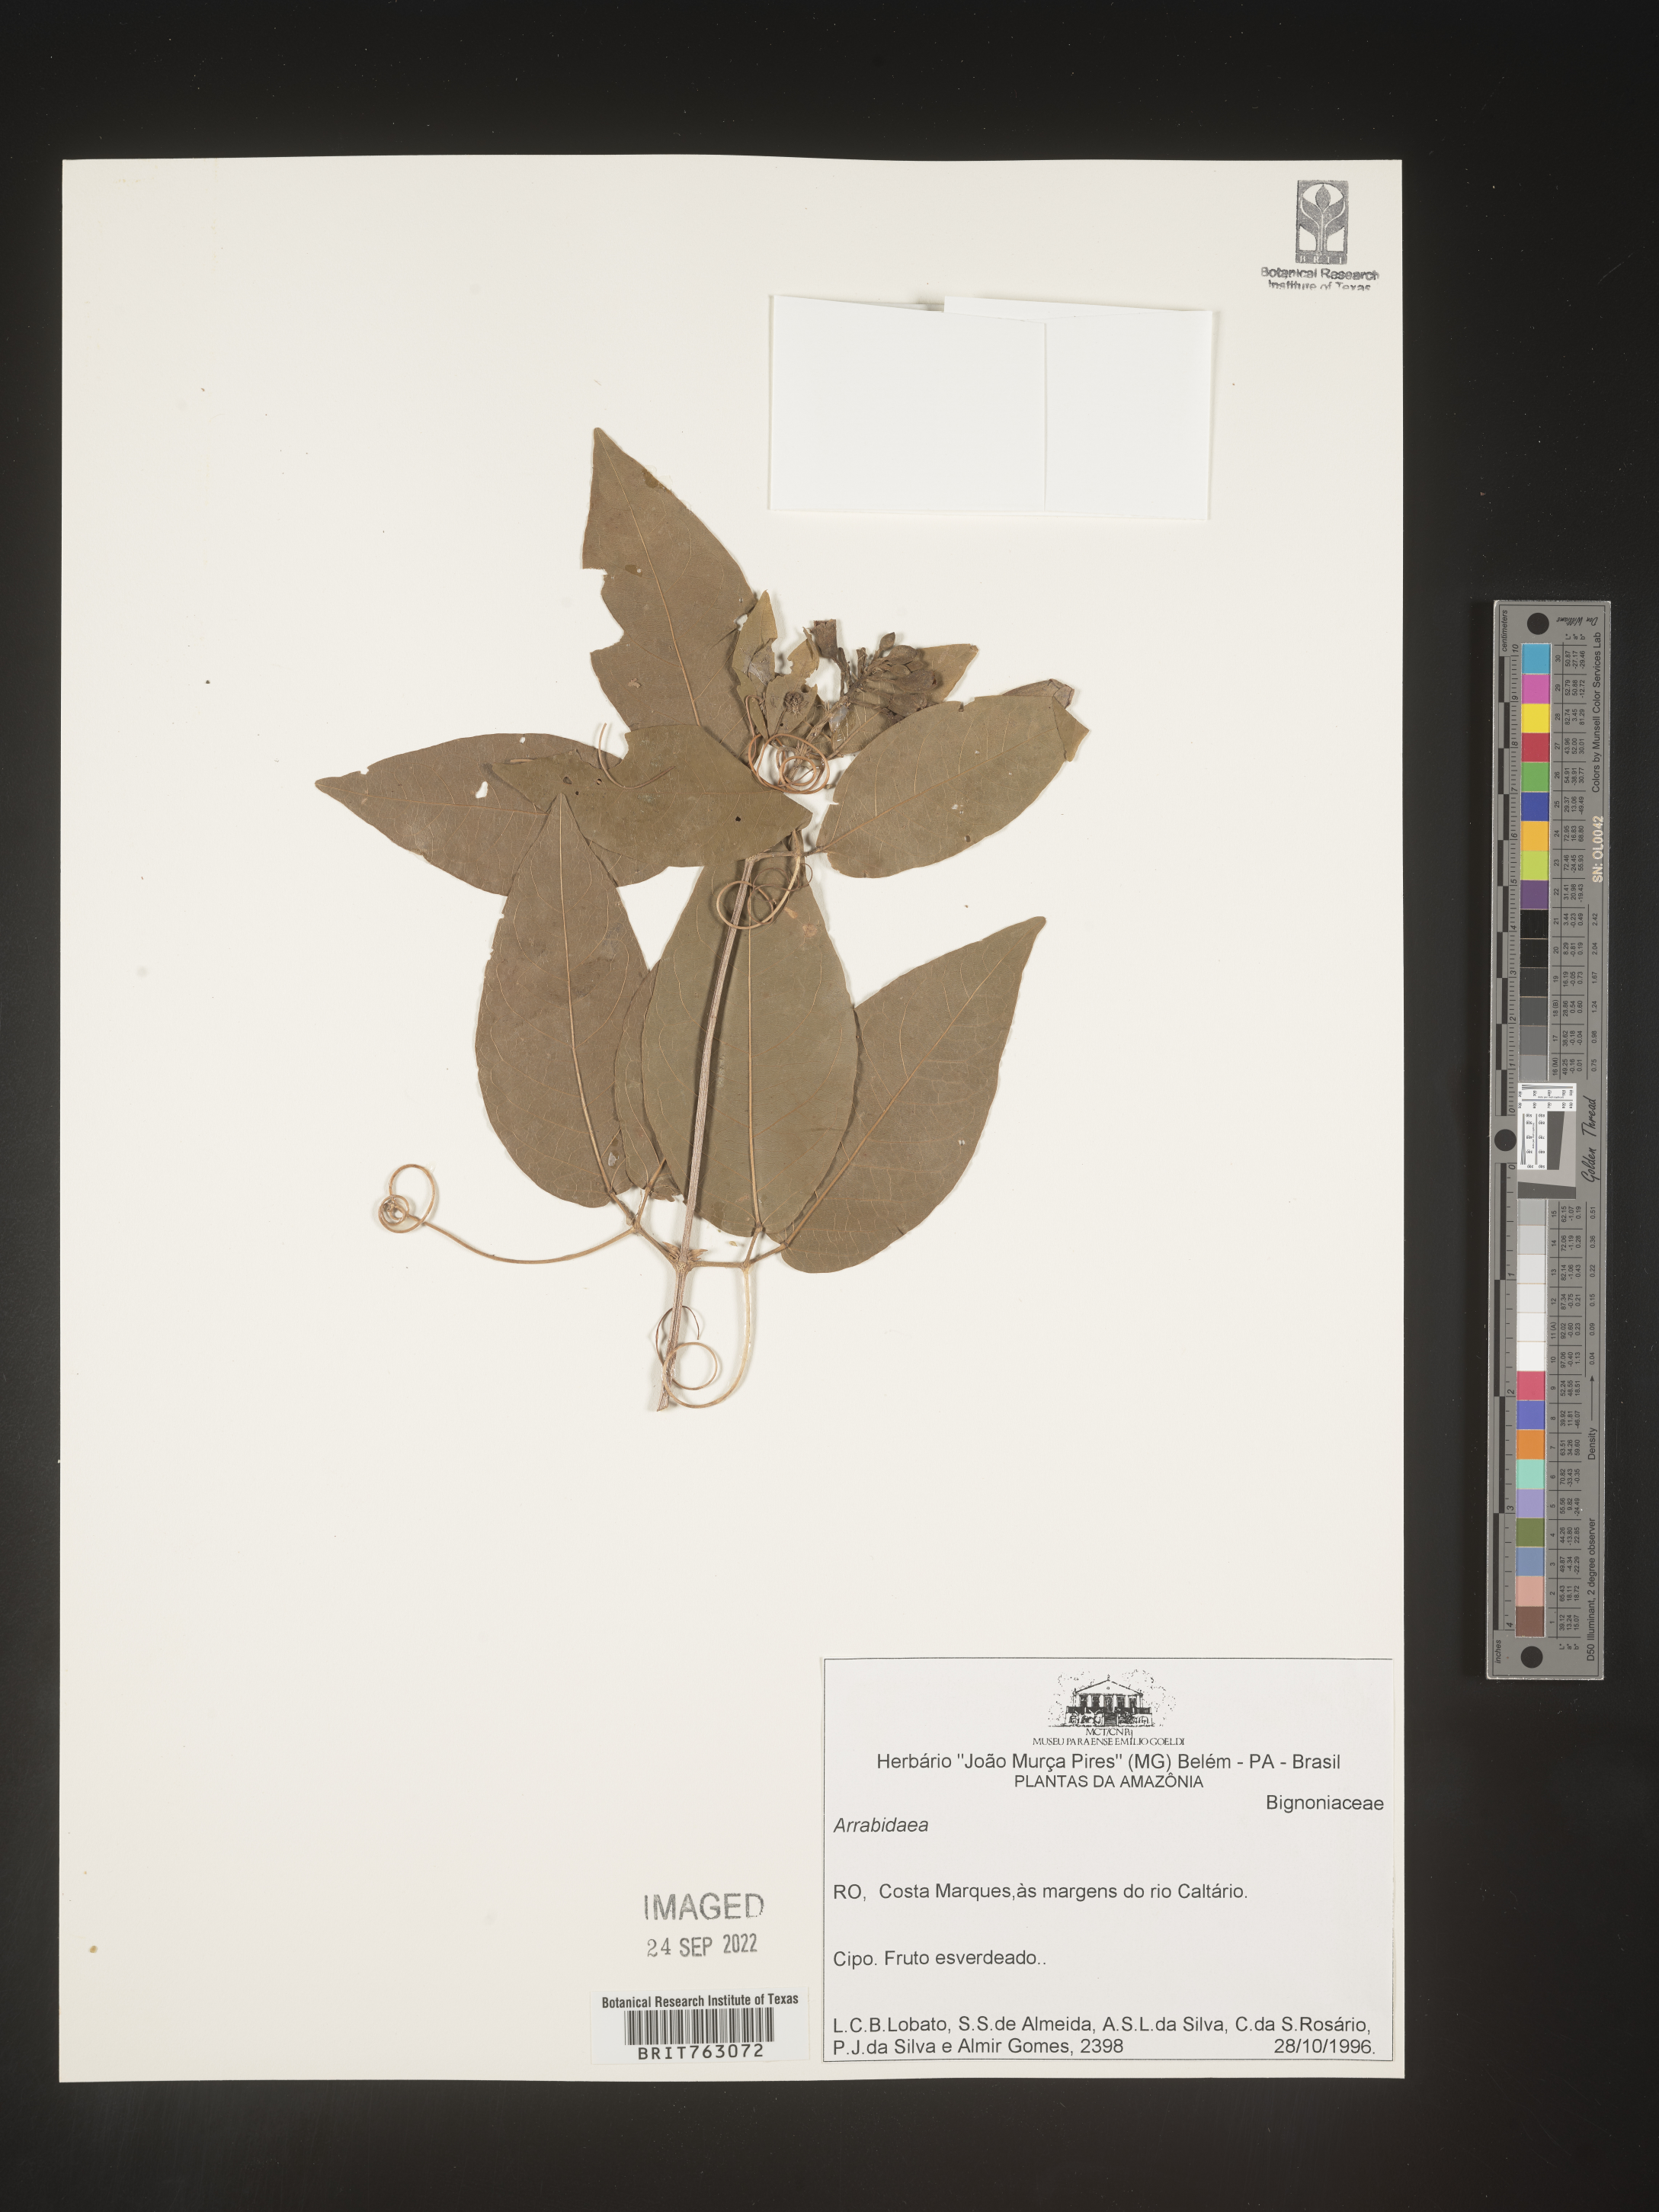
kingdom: Plantae
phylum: Tracheophyta
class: Magnoliopsida
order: Rosales
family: Rhamnaceae
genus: Arrabidaea
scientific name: Arrabidaea
